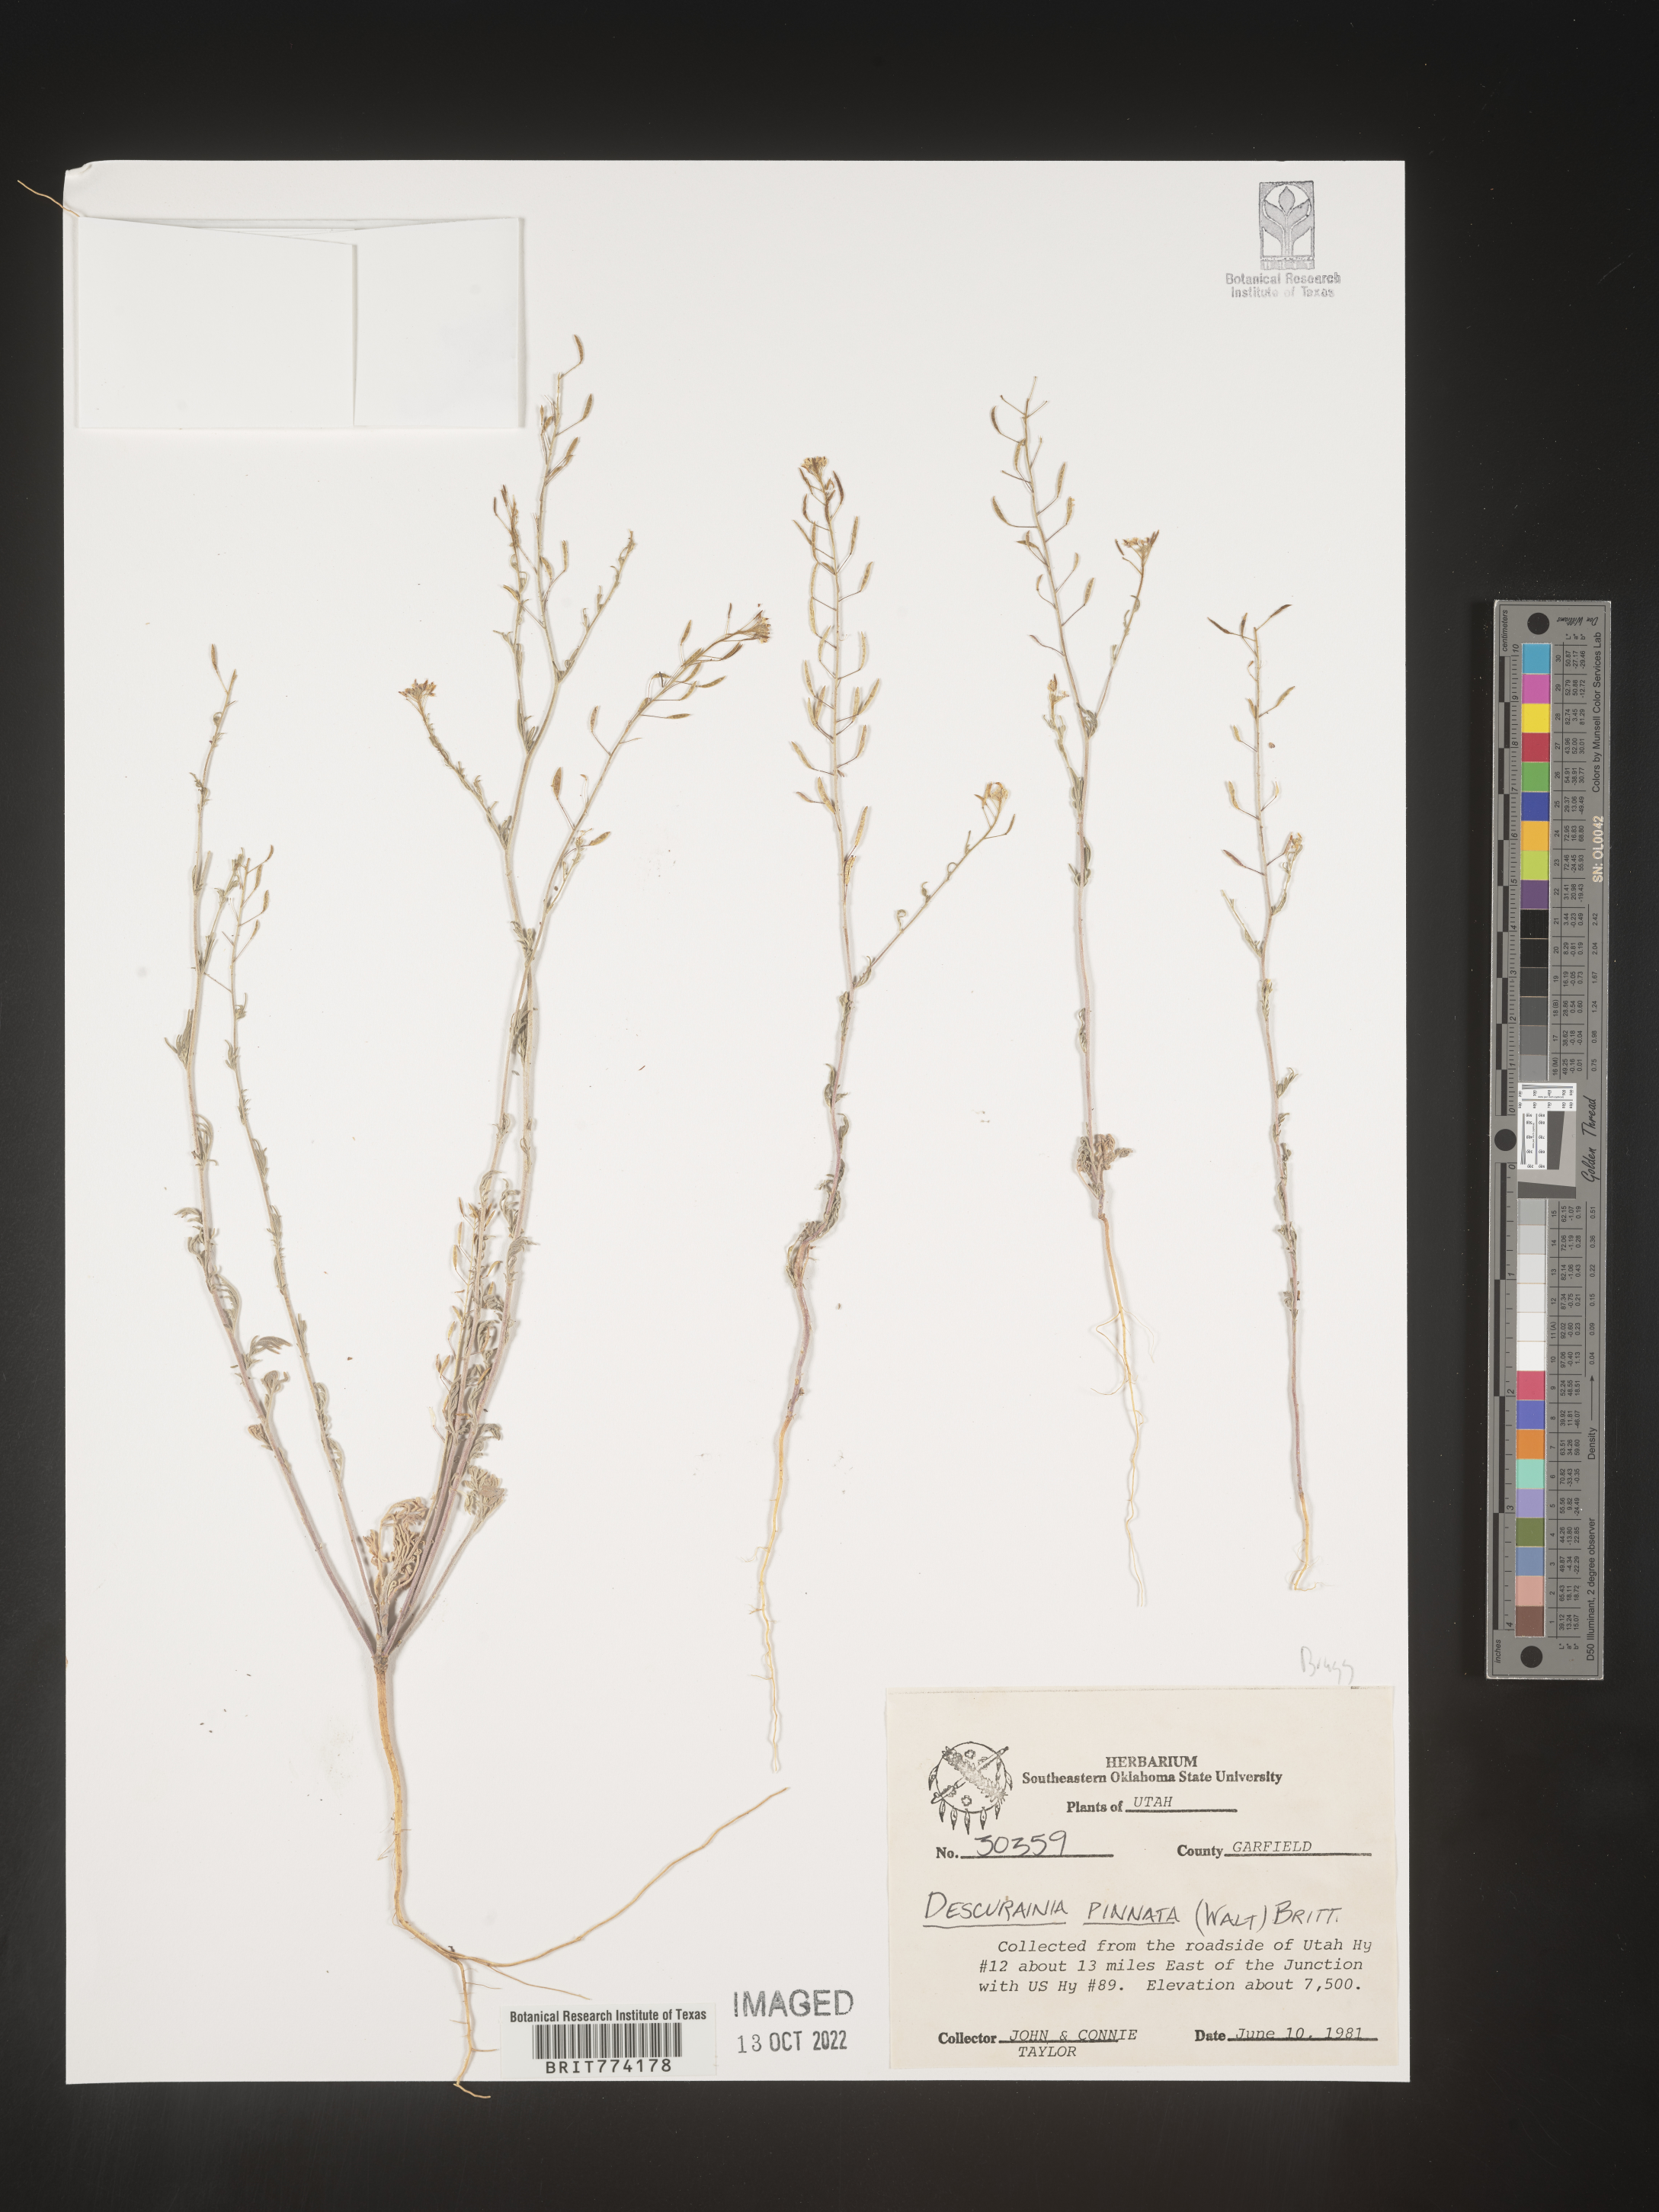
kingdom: Plantae
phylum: Tracheophyta
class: Magnoliopsida
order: Brassicales
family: Brassicaceae
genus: Descurainia
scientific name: Descurainia pinnata
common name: Western tansy mustard
